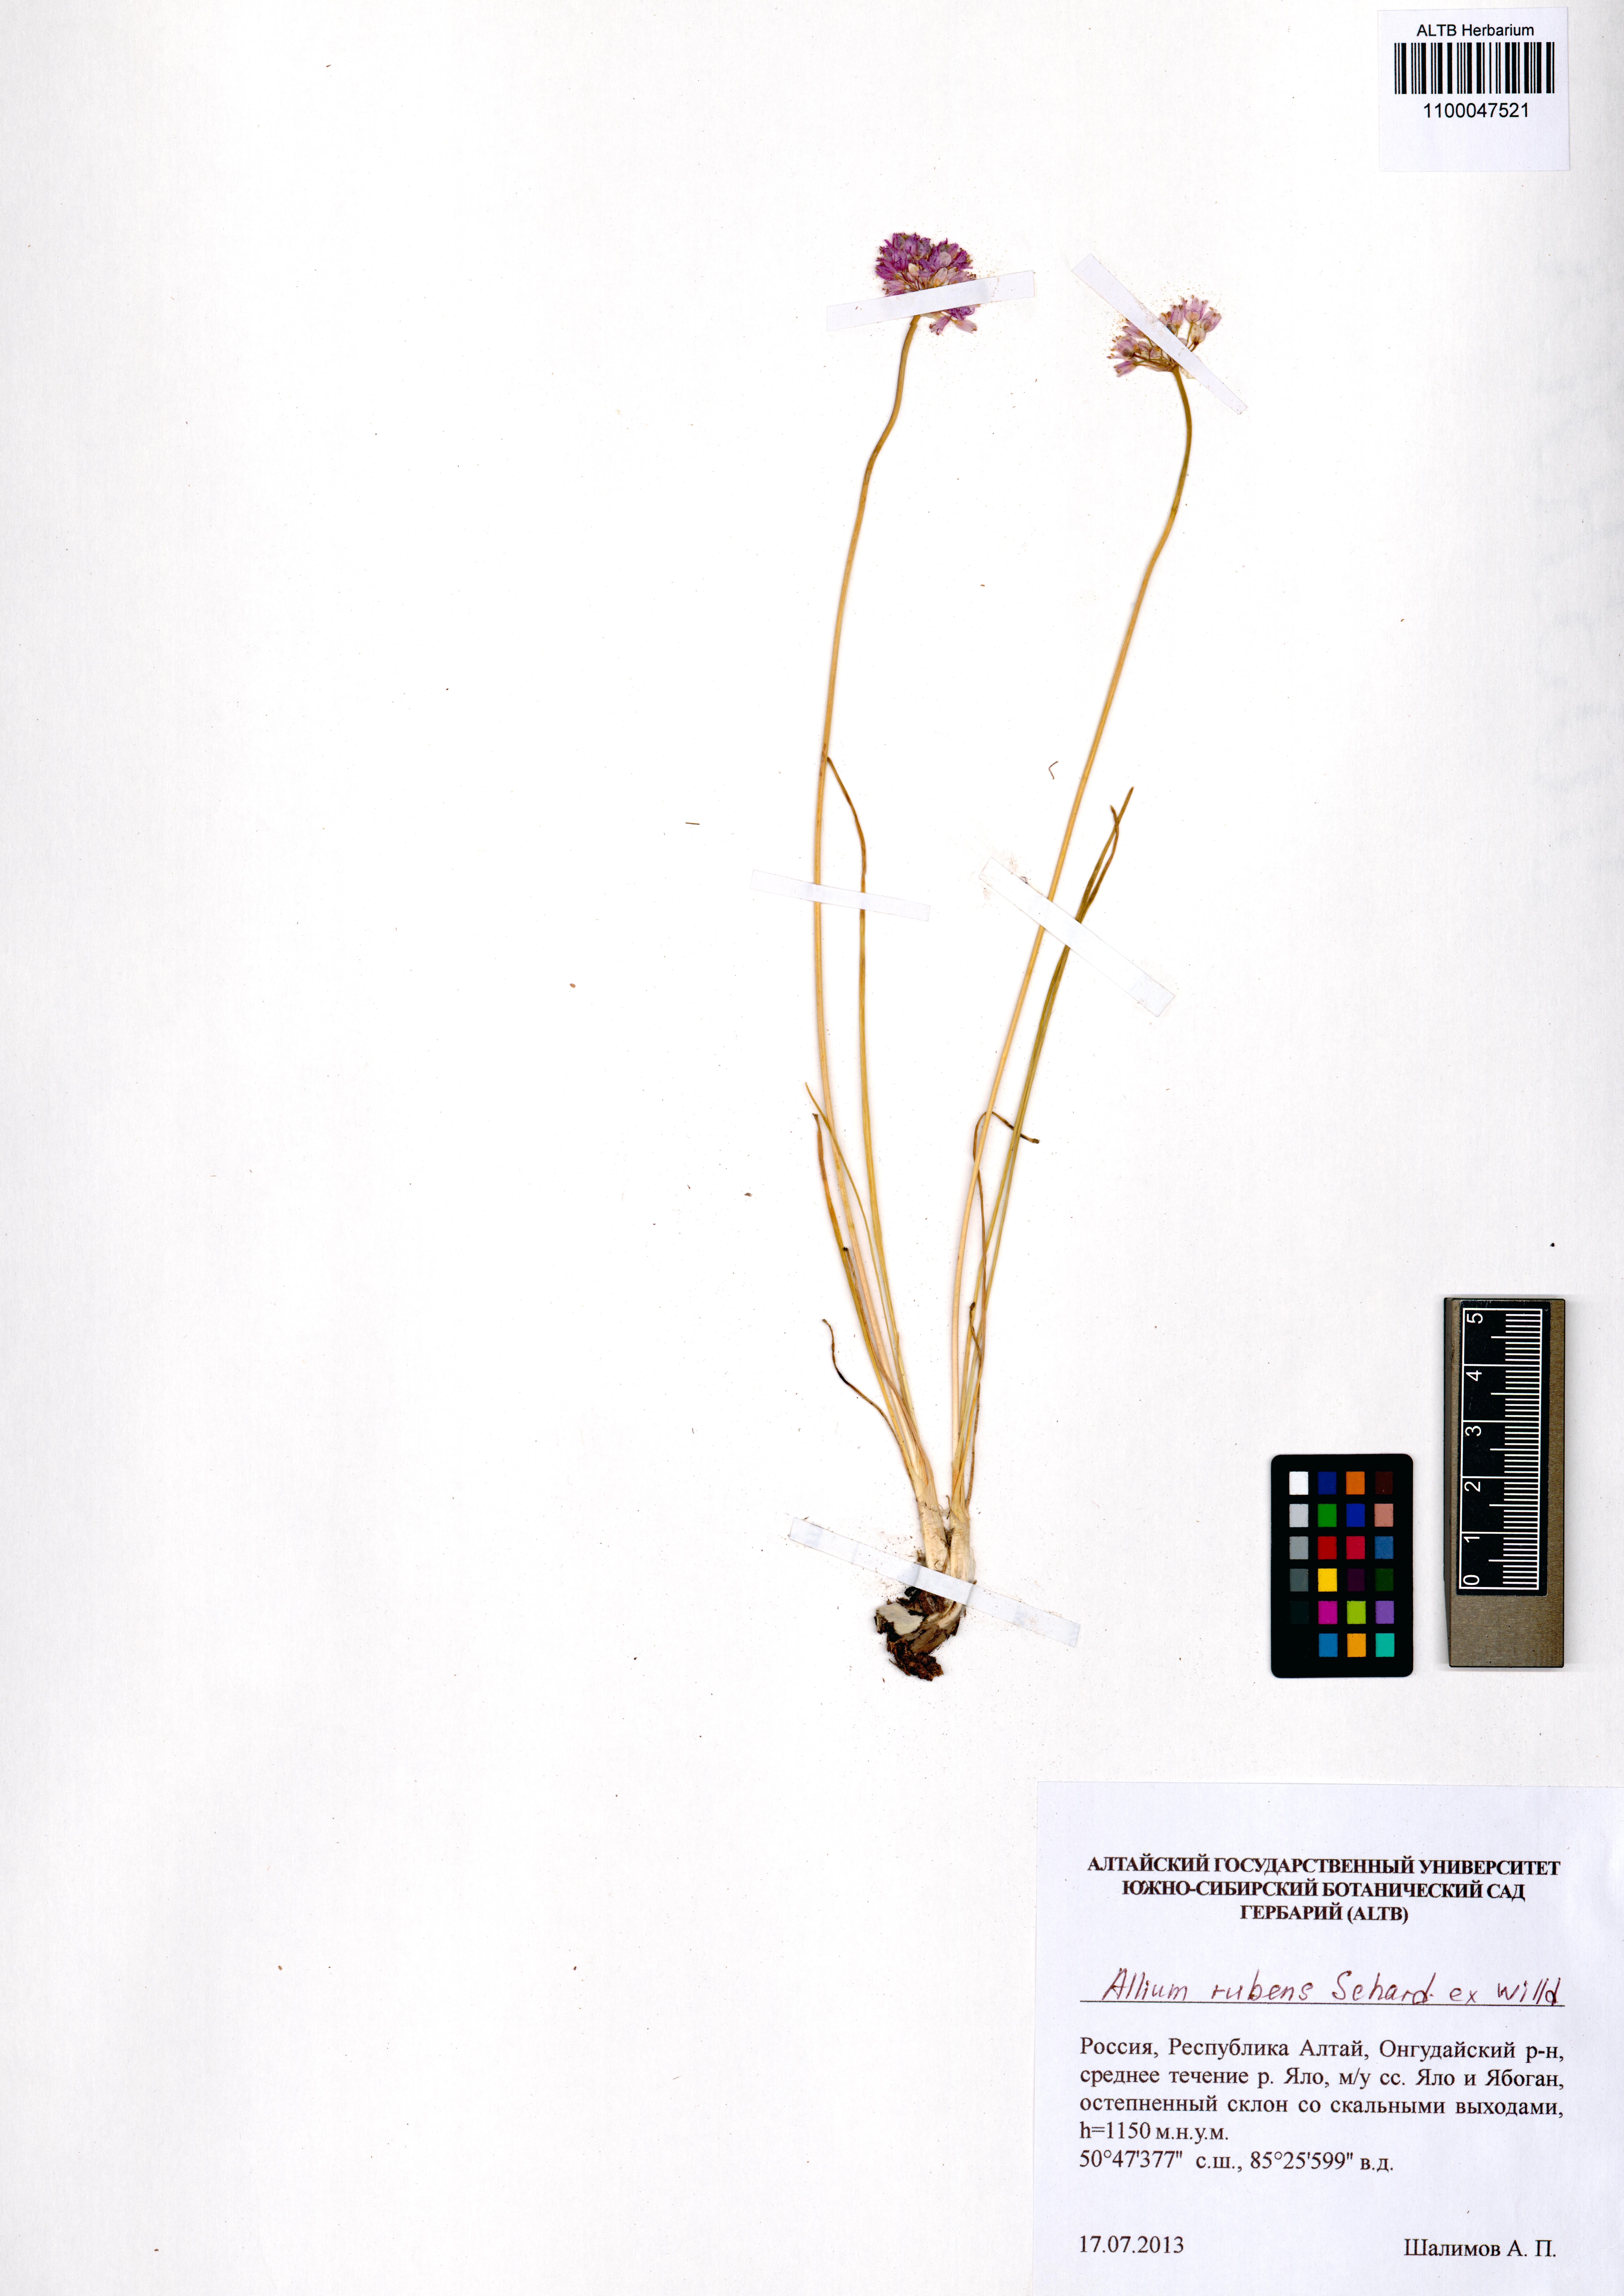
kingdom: Plantae
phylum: Tracheophyta
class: Liliopsida
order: Asparagales
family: Amaryllidaceae
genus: Allium
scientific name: Allium rubens
